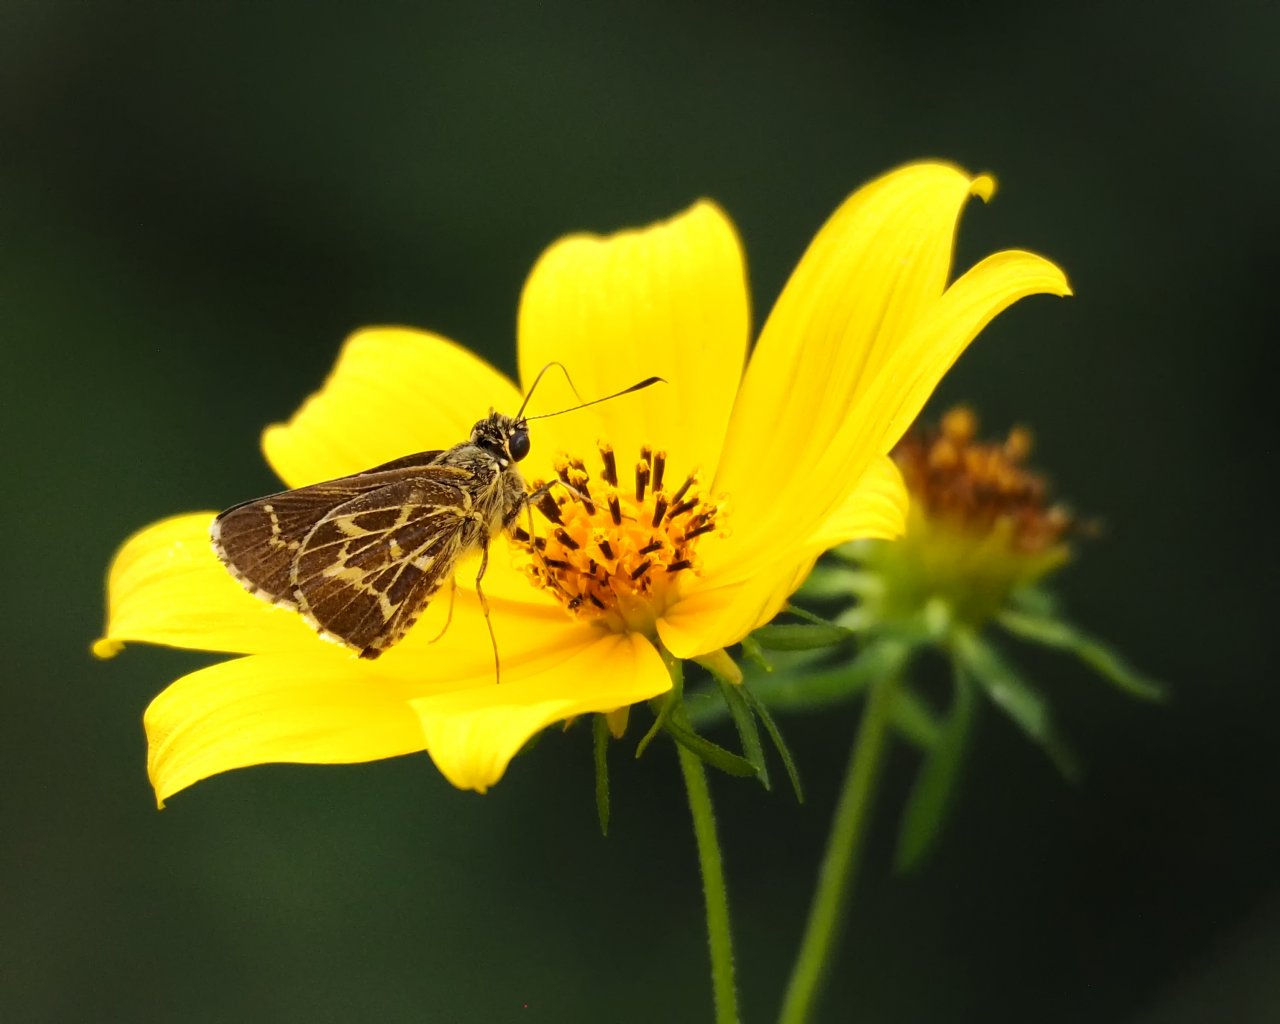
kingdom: Animalia
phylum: Arthropoda
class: Insecta
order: Lepidoptera
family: Hesperiidae
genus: Mastor
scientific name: Mastor aesculapius
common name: Lace-winged Roadside-Skipper
